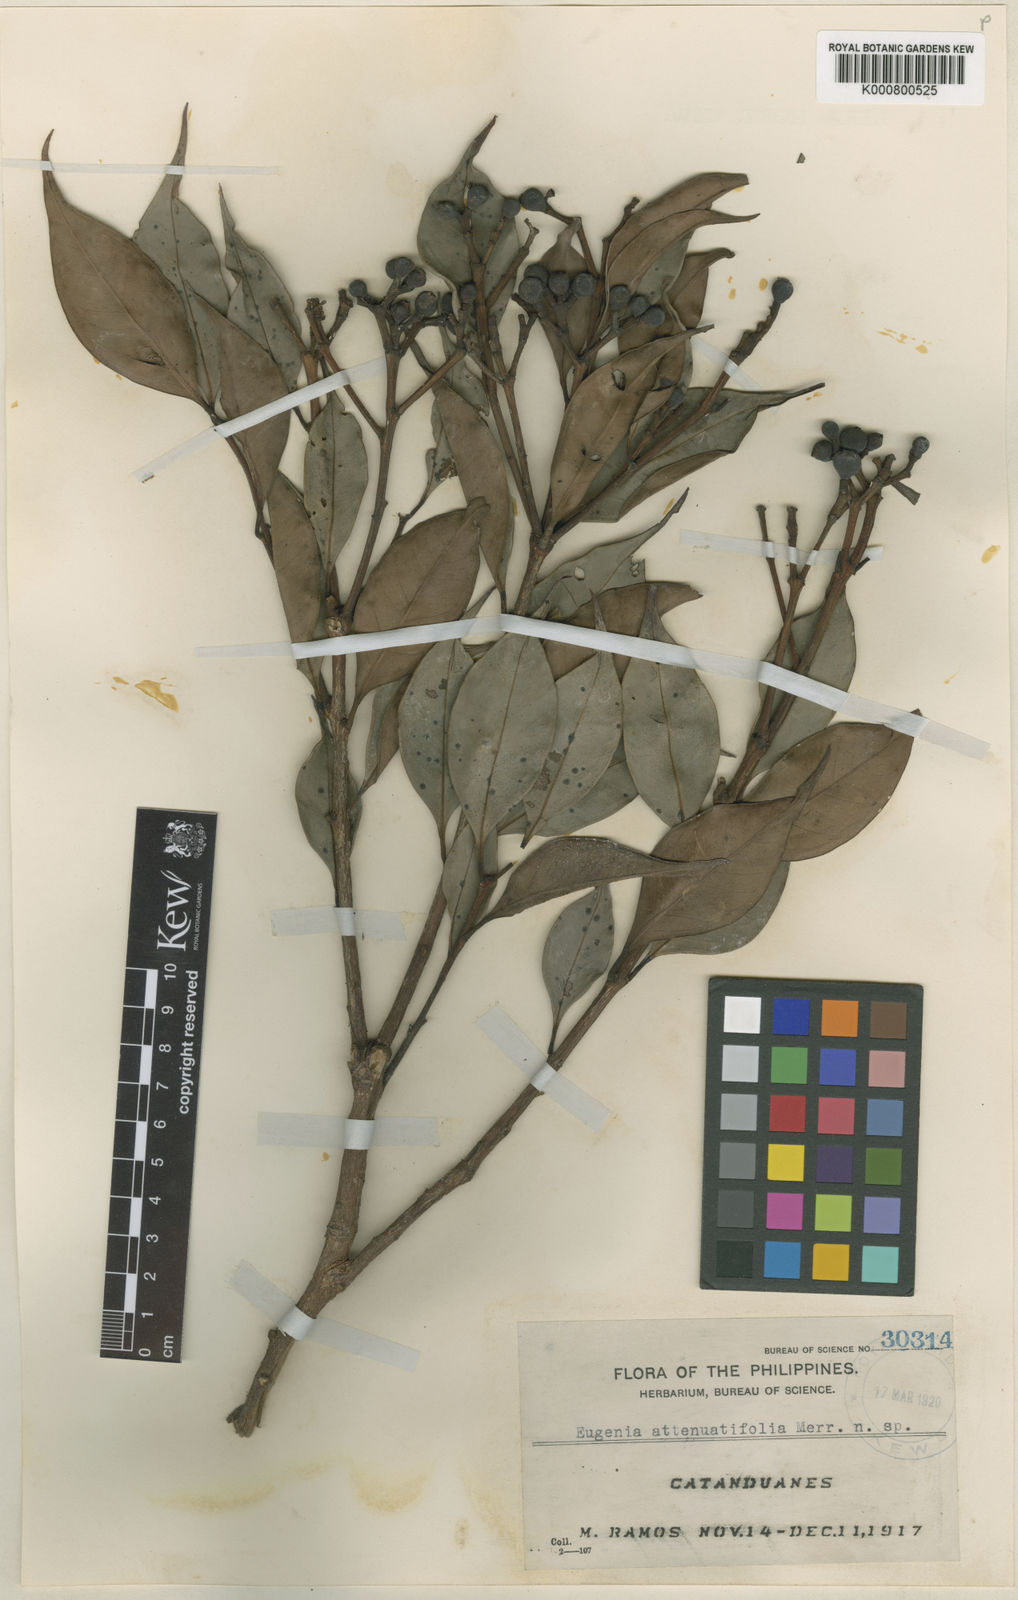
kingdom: Plantae
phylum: Tracheophyta
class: Magnoliopsida
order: Myrtales
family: Myrtaceae
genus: Syzygium
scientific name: Syzygium acuminatissimum
